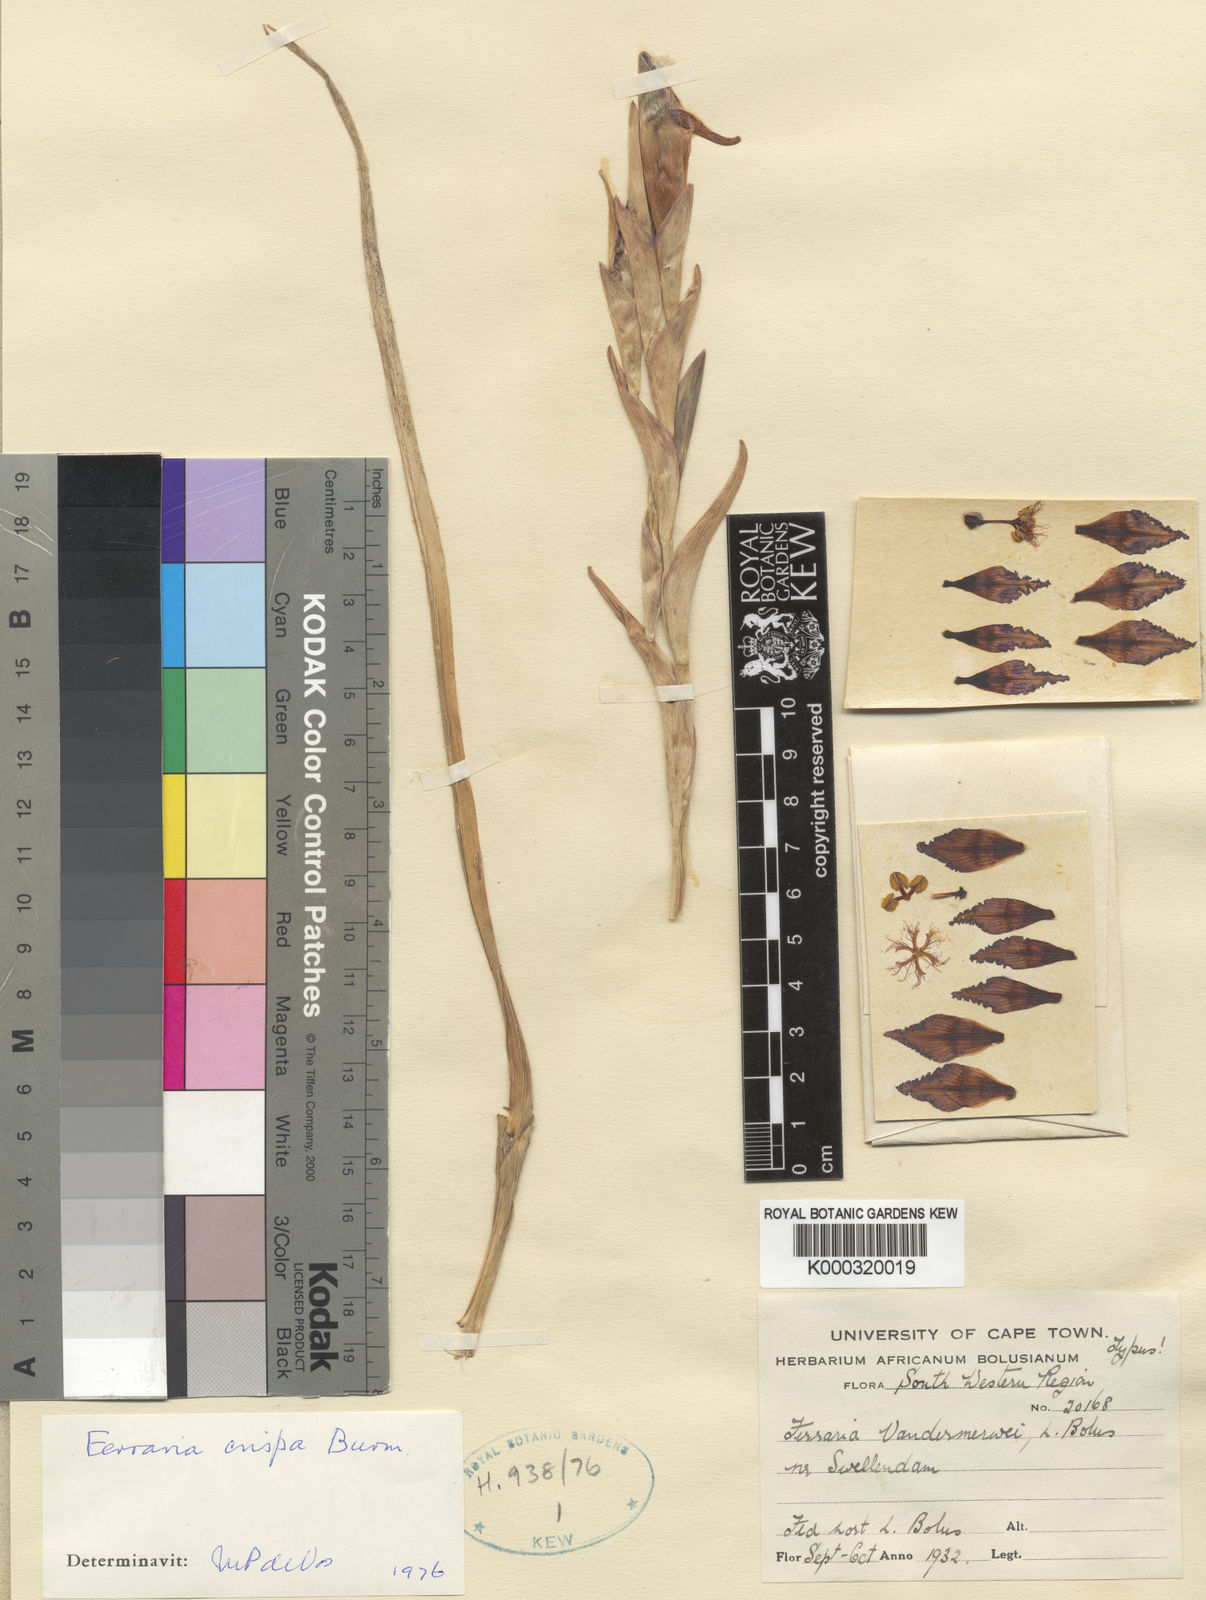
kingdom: Plantae
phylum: Tracheophyta
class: Liliopsida
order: Asparagales
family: Iridaceae
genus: Ferraria
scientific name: Ferraria crispa
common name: Black-flag
